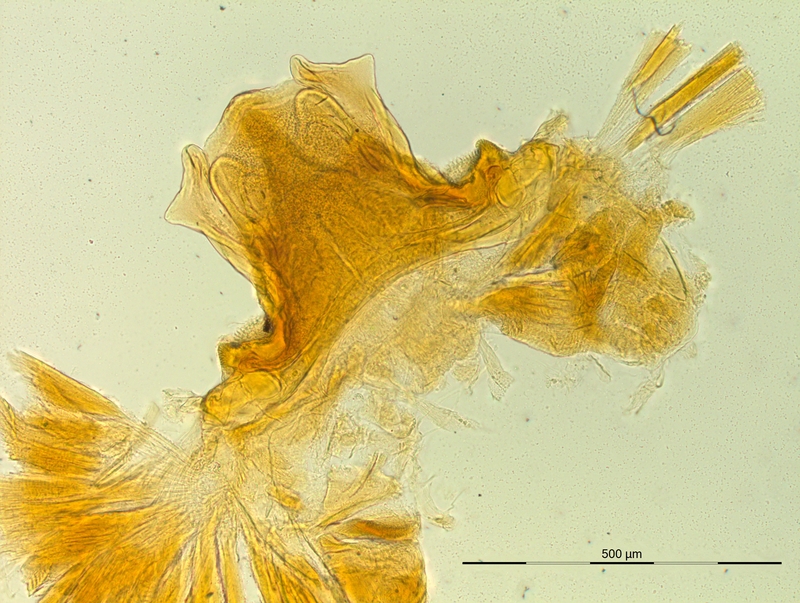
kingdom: Animalia
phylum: Arthropoda
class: Diplopoda
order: Chordeumatida
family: Craspedosomatidae
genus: Pyrgocyphosoma
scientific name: Pyrgocyphosoma titianum
